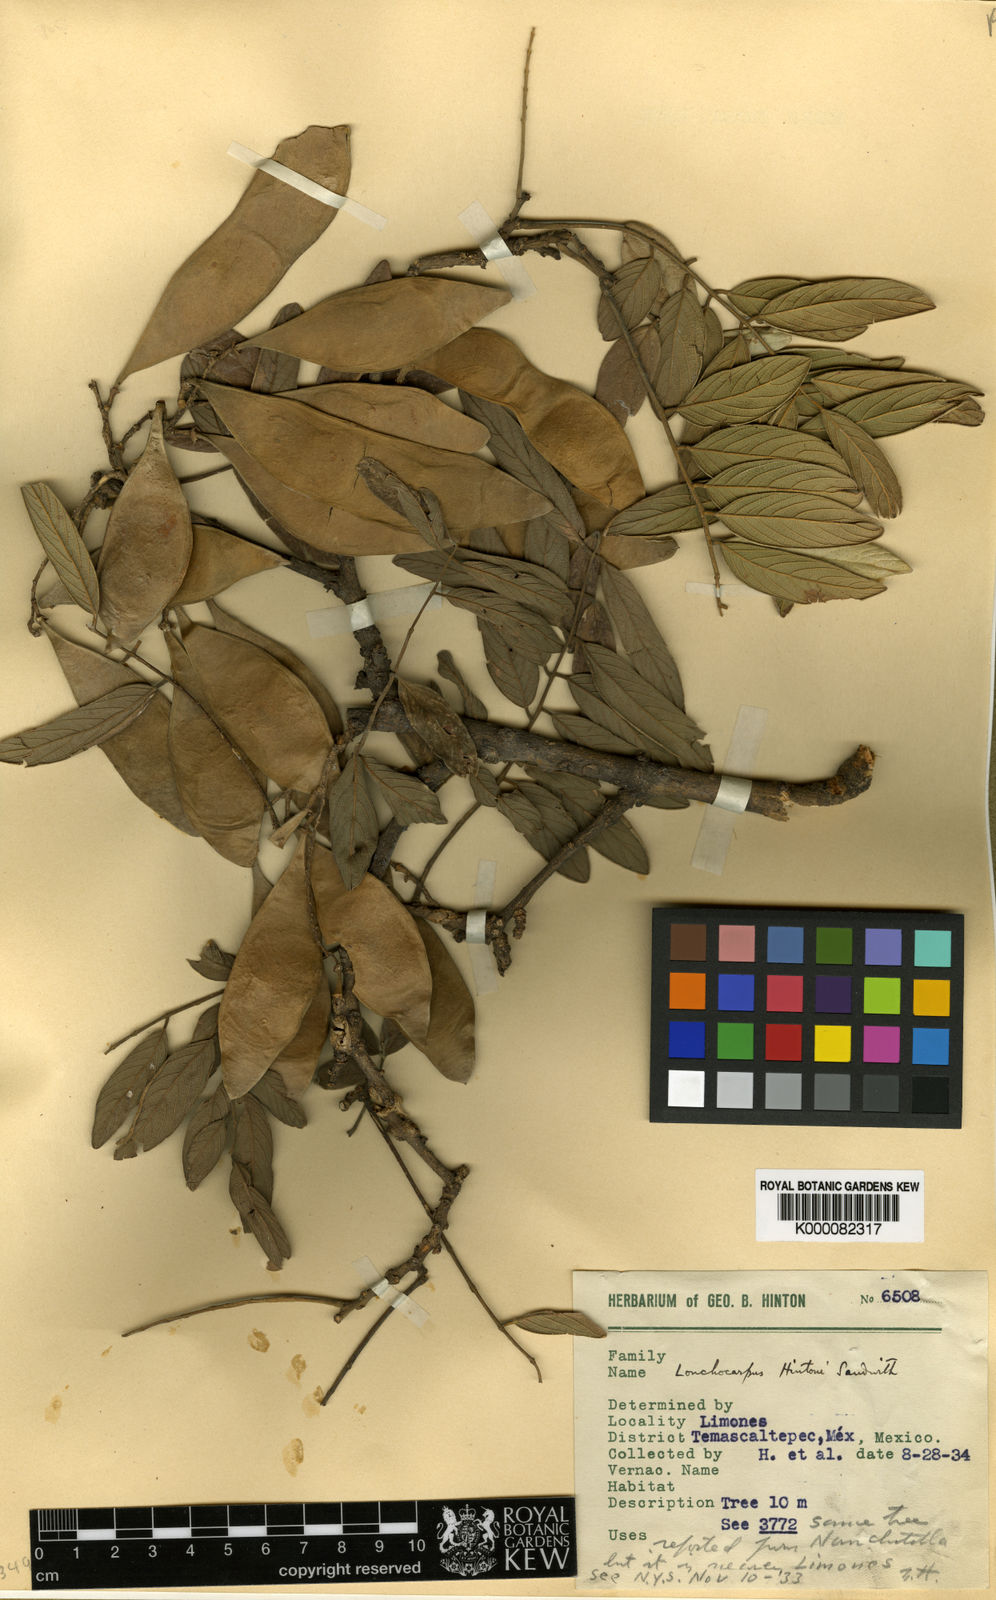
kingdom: Plantae
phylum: Tracheophyta
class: Magnoliopsida
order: Fabales
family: Fabaceae
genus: Lonchocarpus
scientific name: Lonchocarpus hintonii
